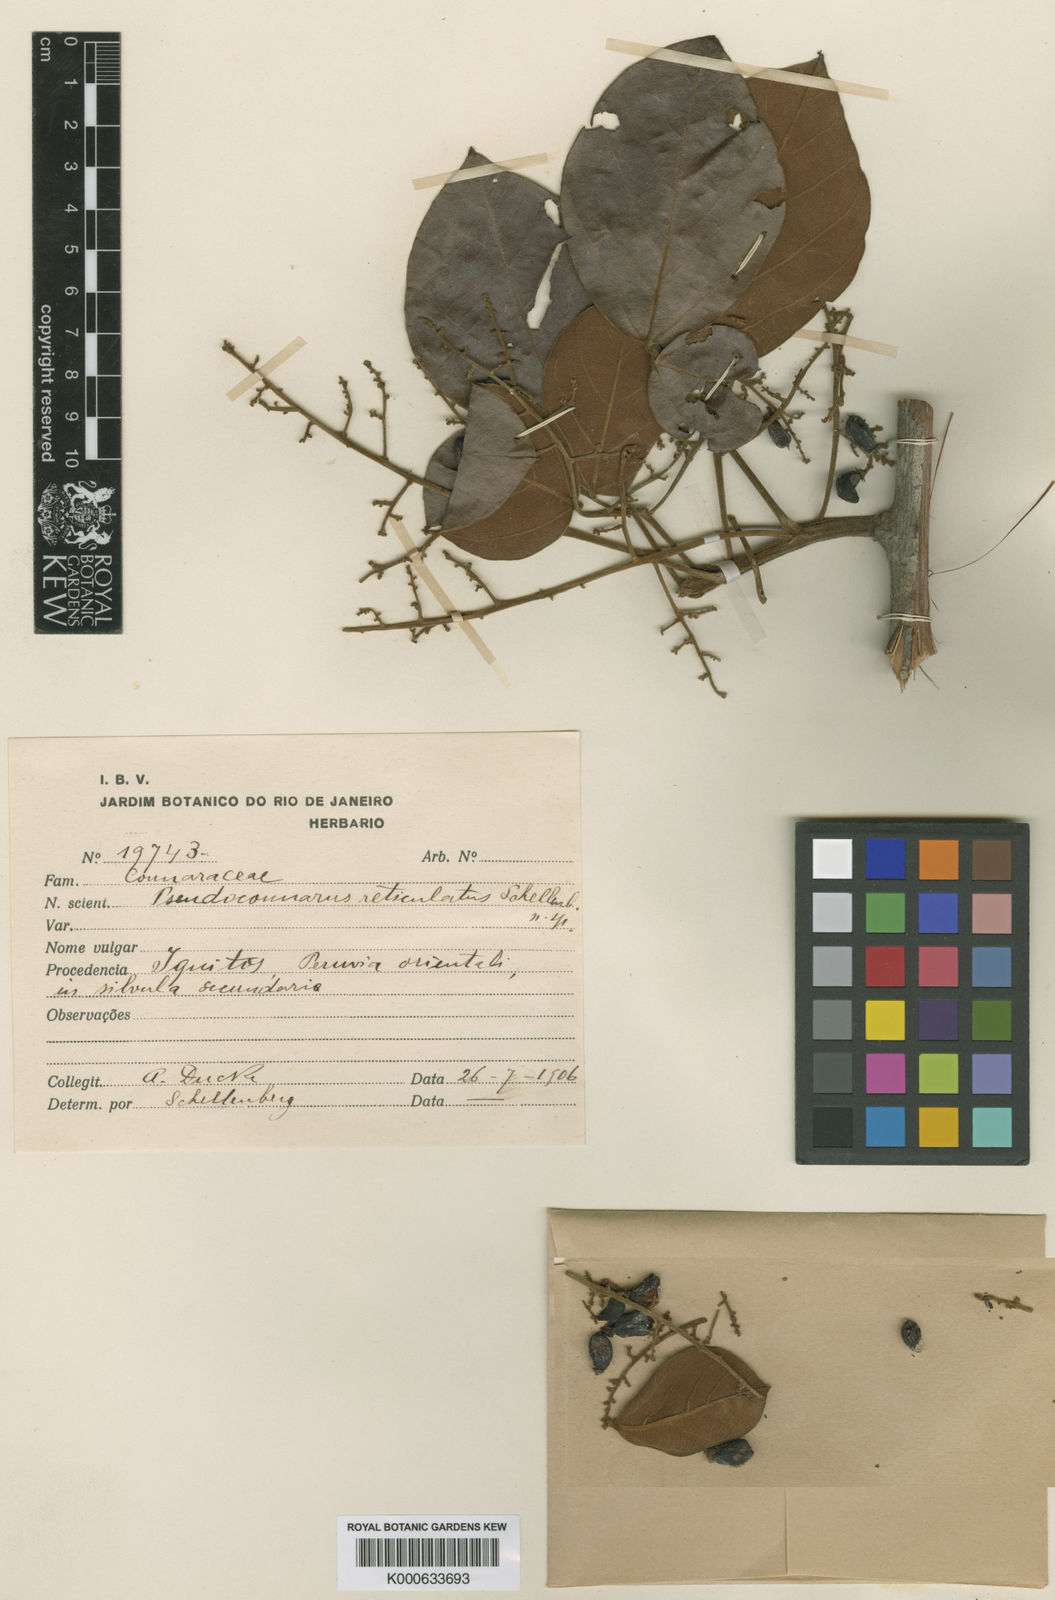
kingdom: Plantae
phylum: Tracheophyta
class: Magnoliopsida
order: Oxalidales
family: Connaraceae
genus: Pseudoconnarus
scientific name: Pseudoconnarus rhynchosioides
